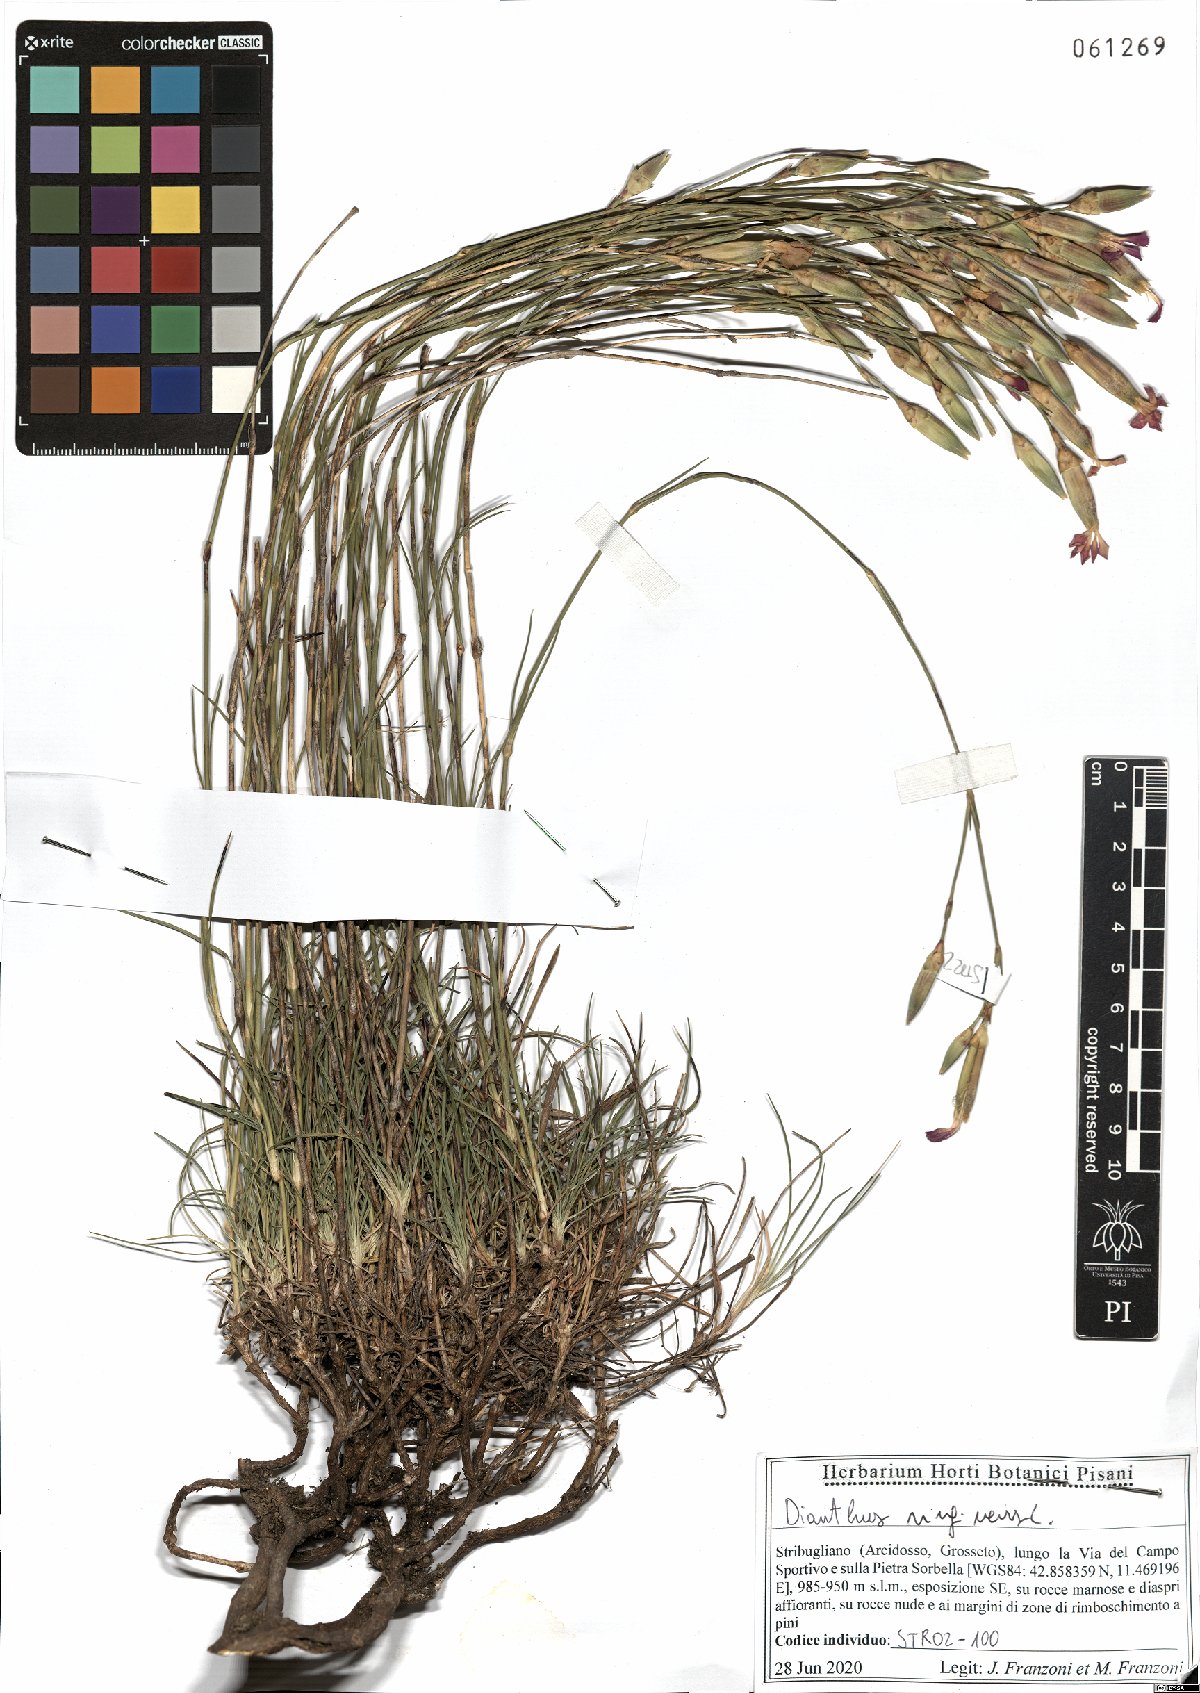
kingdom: Plantae
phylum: Tracheophyta
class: Magnoliopsida
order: Caryophyllales
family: Caryophyllaceae
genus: Dianthus
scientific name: Dianthus virgineus
